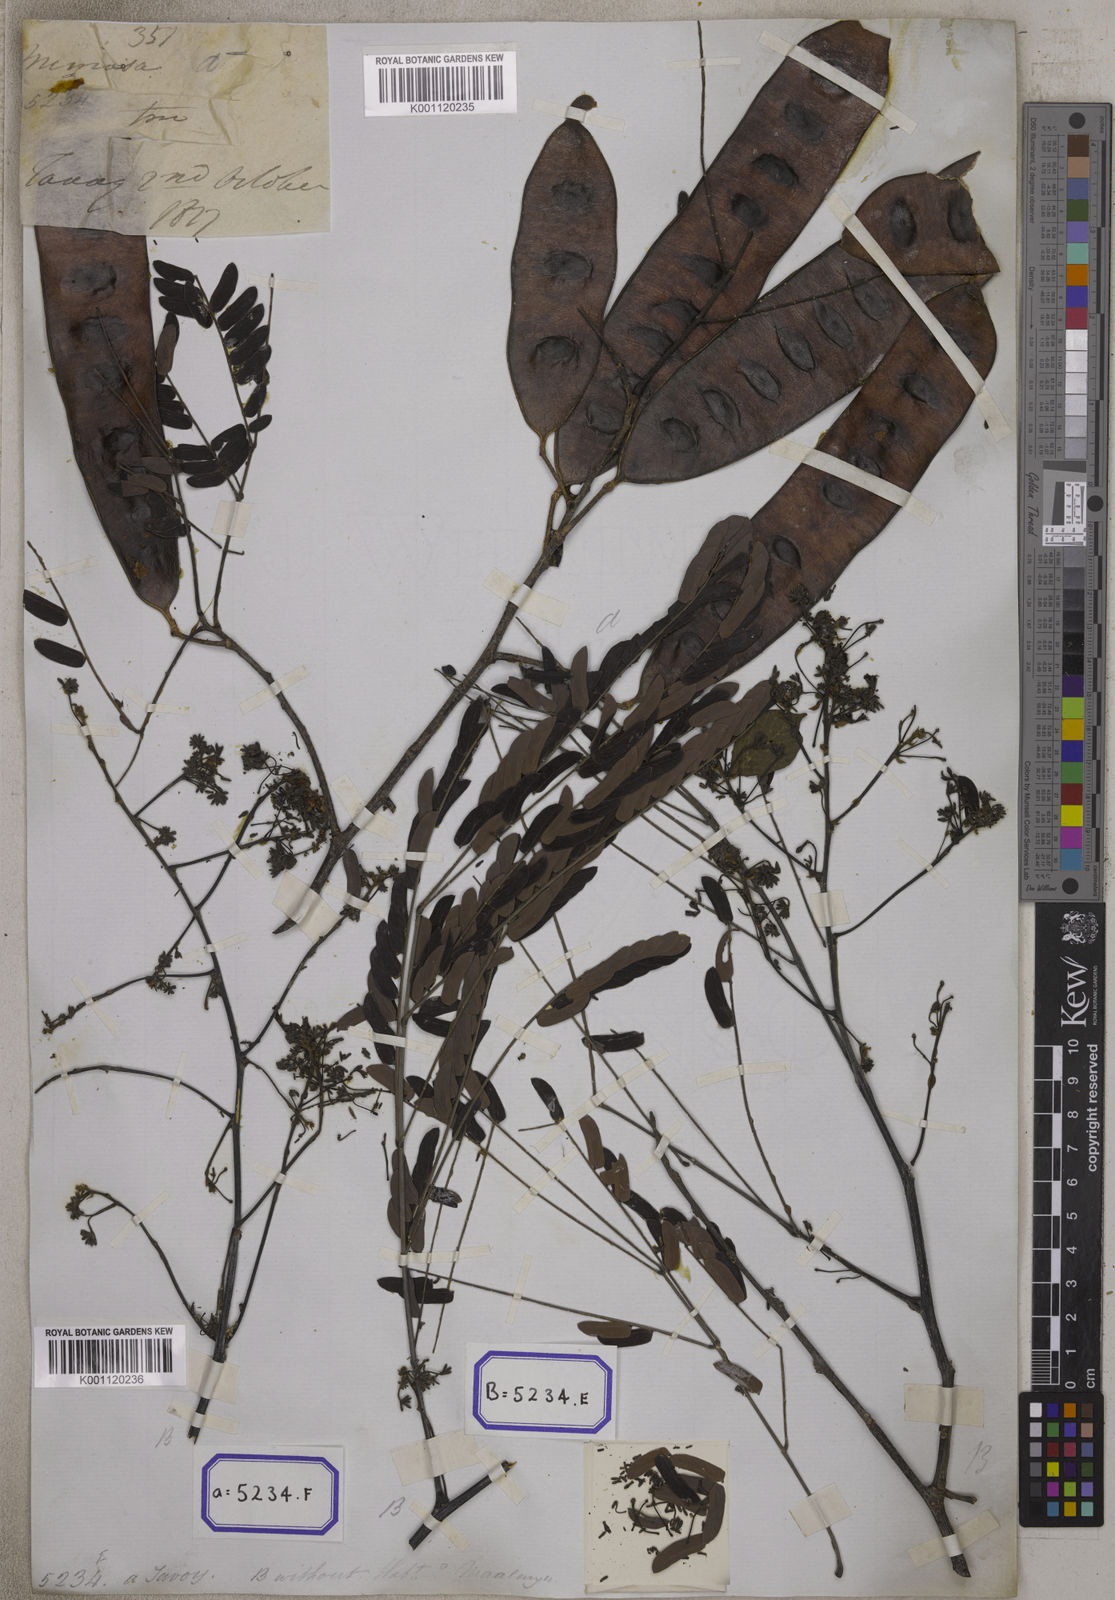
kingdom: Plantae
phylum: Tracheophyta
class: Magnoliopsida
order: Fabales
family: Fabaceae
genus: Albizia
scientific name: Albizia odoratissima
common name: Ceylon rosewood
